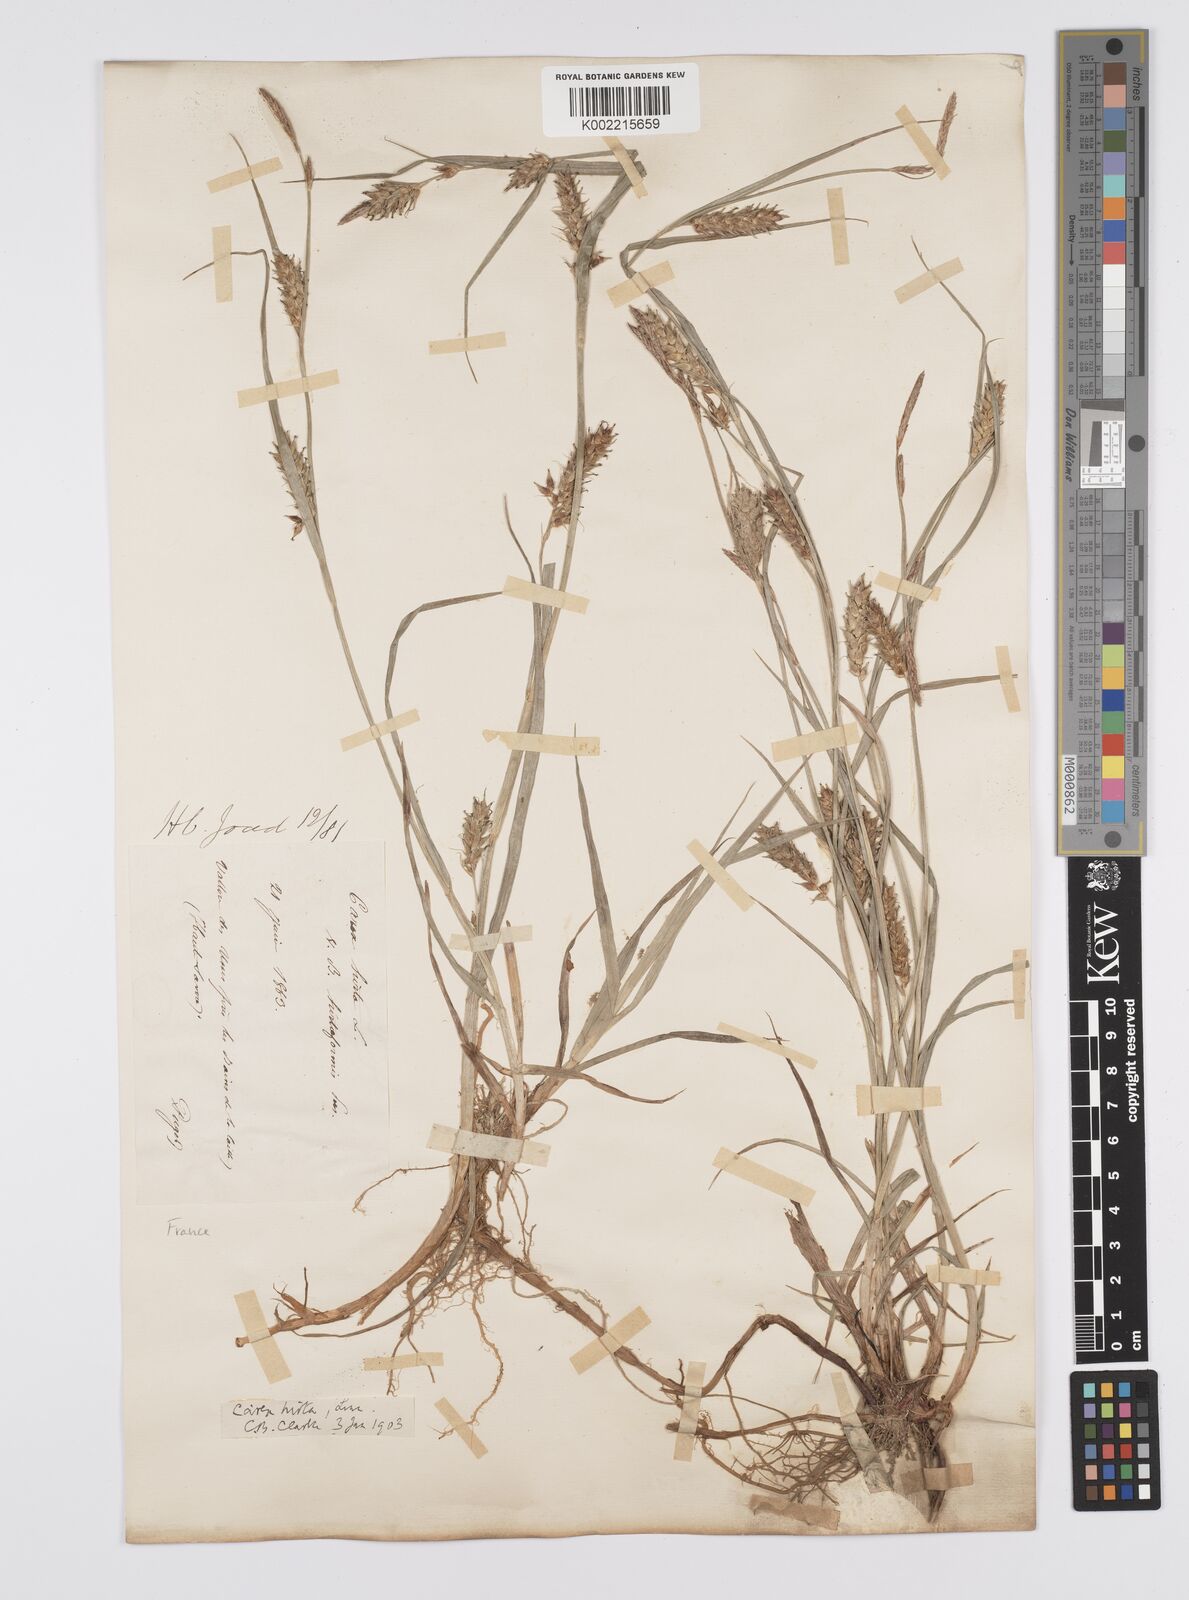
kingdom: Plantae
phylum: Tracheophyta
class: Liliopsida
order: Poales
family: Cyperaceae
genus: Carex
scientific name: Carex hirta
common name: Hairy sedge
